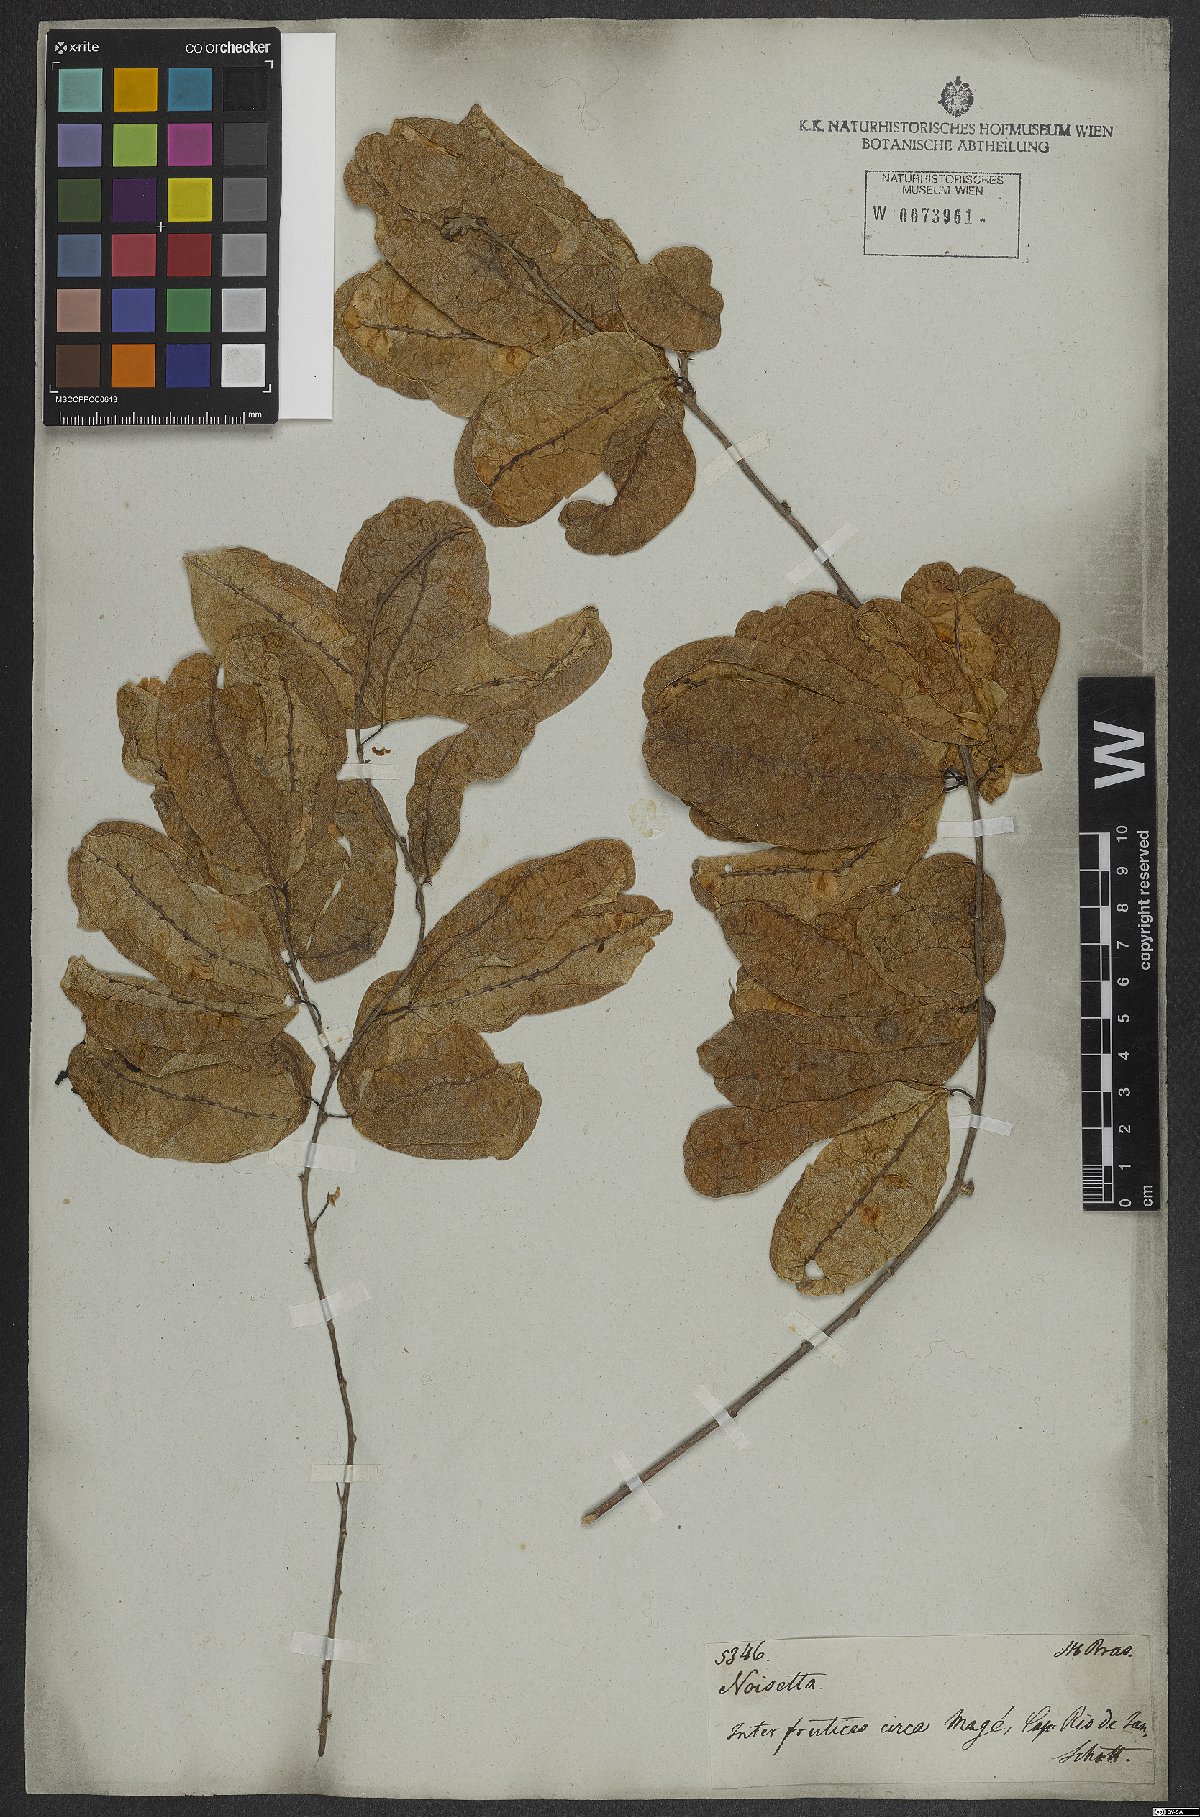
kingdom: Plantae
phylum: Tracheophyta
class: Magnoliopsida
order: Malpighiales
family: Violaceae
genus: Anchietea
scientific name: Anchietea pyrifolia
